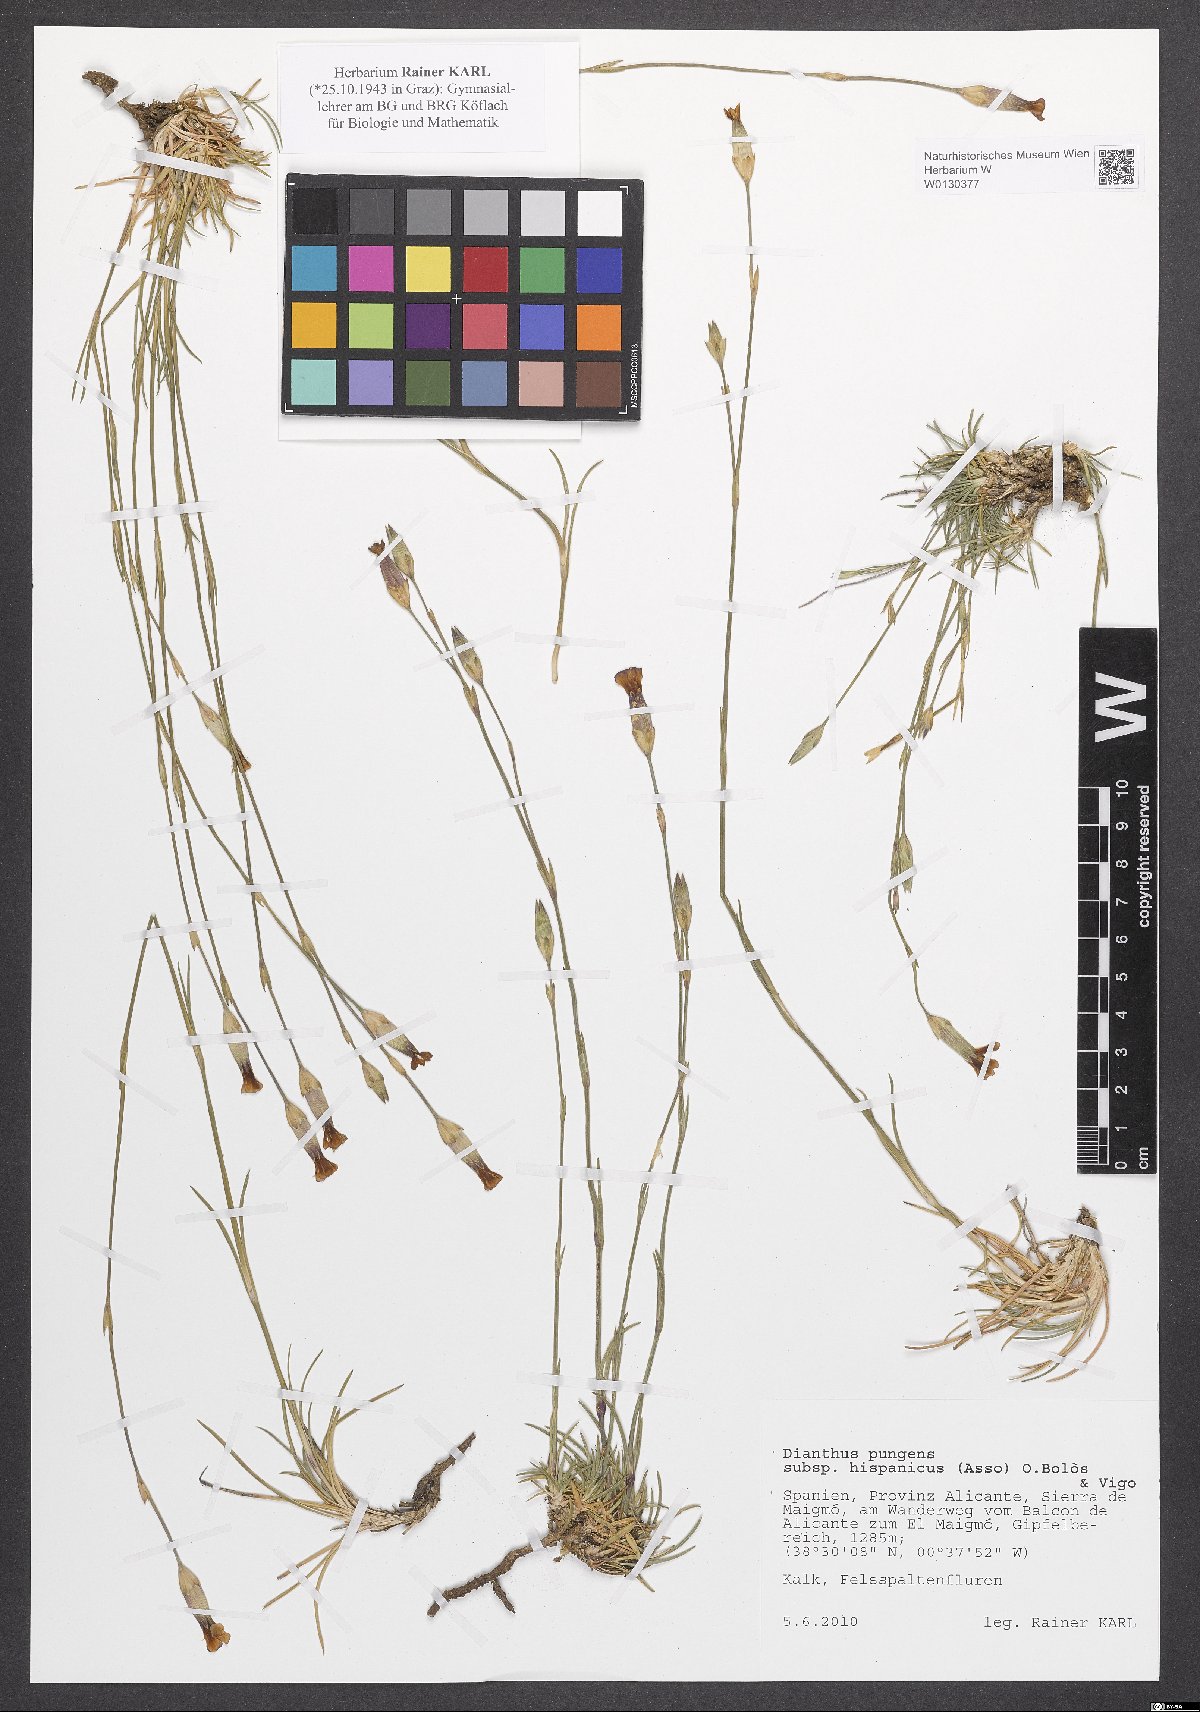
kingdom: Plantae
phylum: Tracheophyta
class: Magnoliopsida
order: Caryophyllales
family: Caryophyllaceae
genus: Dianthus
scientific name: Dianthus pungens
